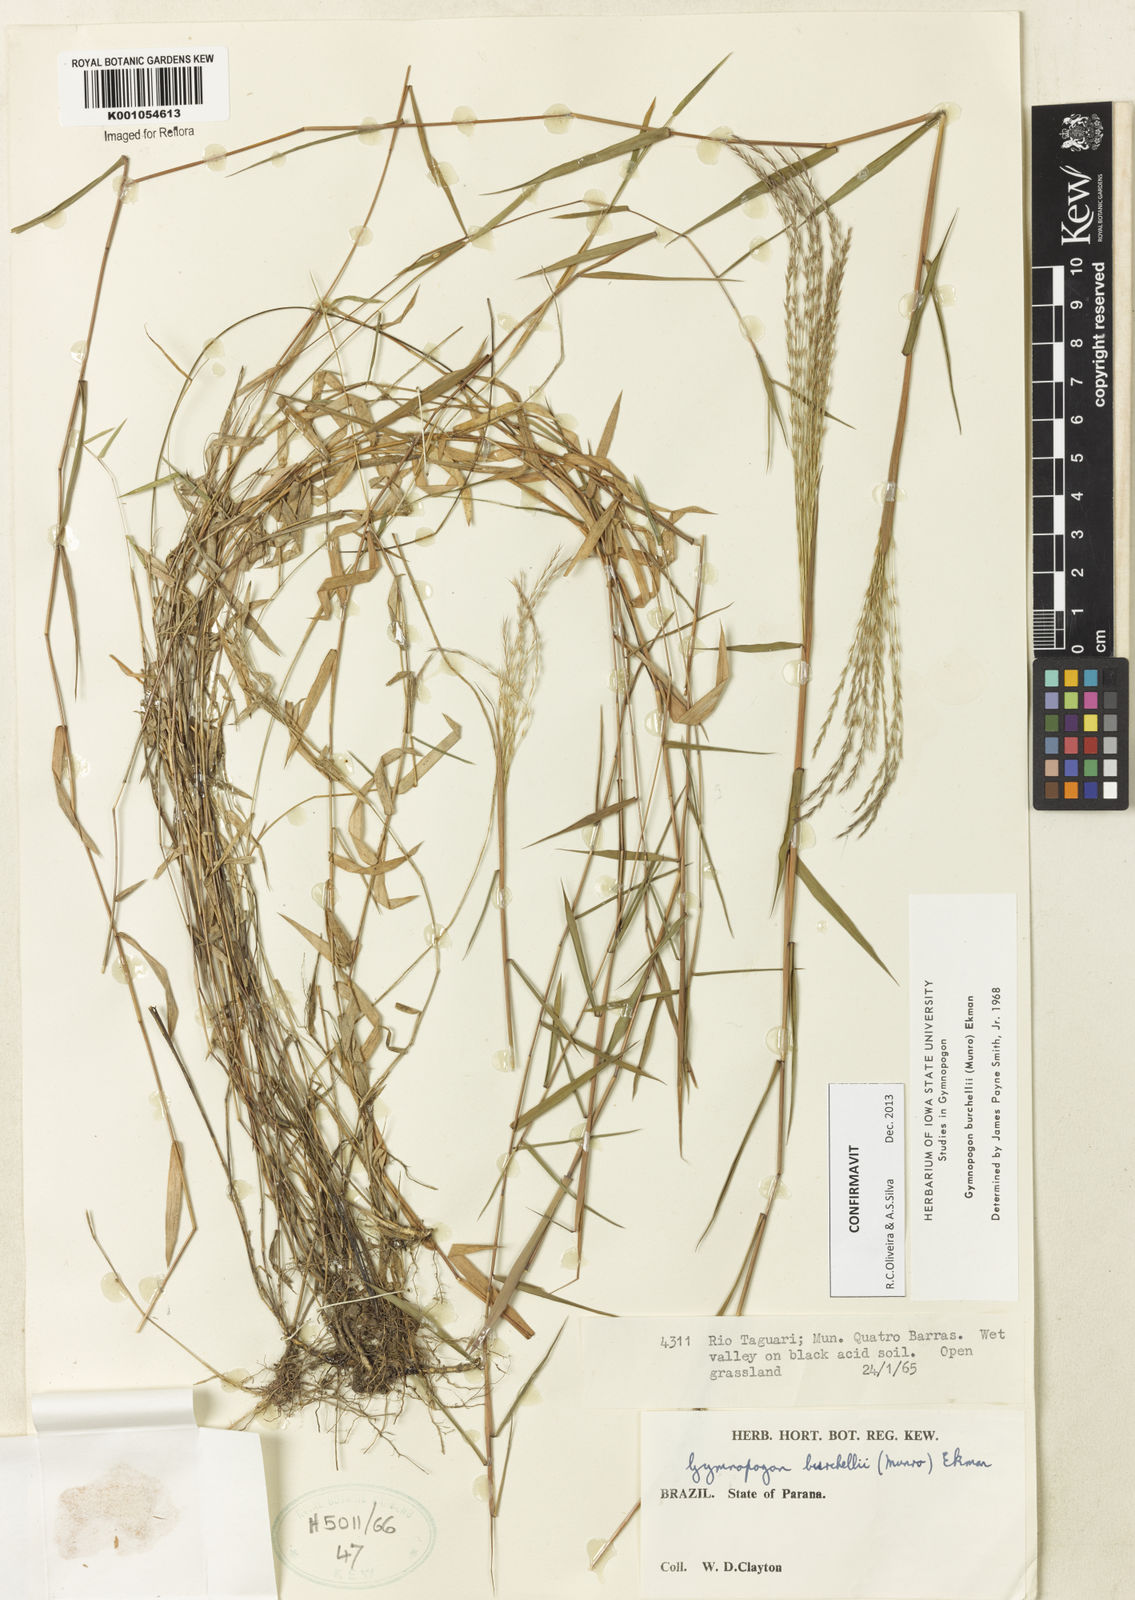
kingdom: Plantae
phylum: Tracheophyta
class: Liliopsida
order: Poales
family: Poaceae
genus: Gymnopogon
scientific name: Gymnopogon
